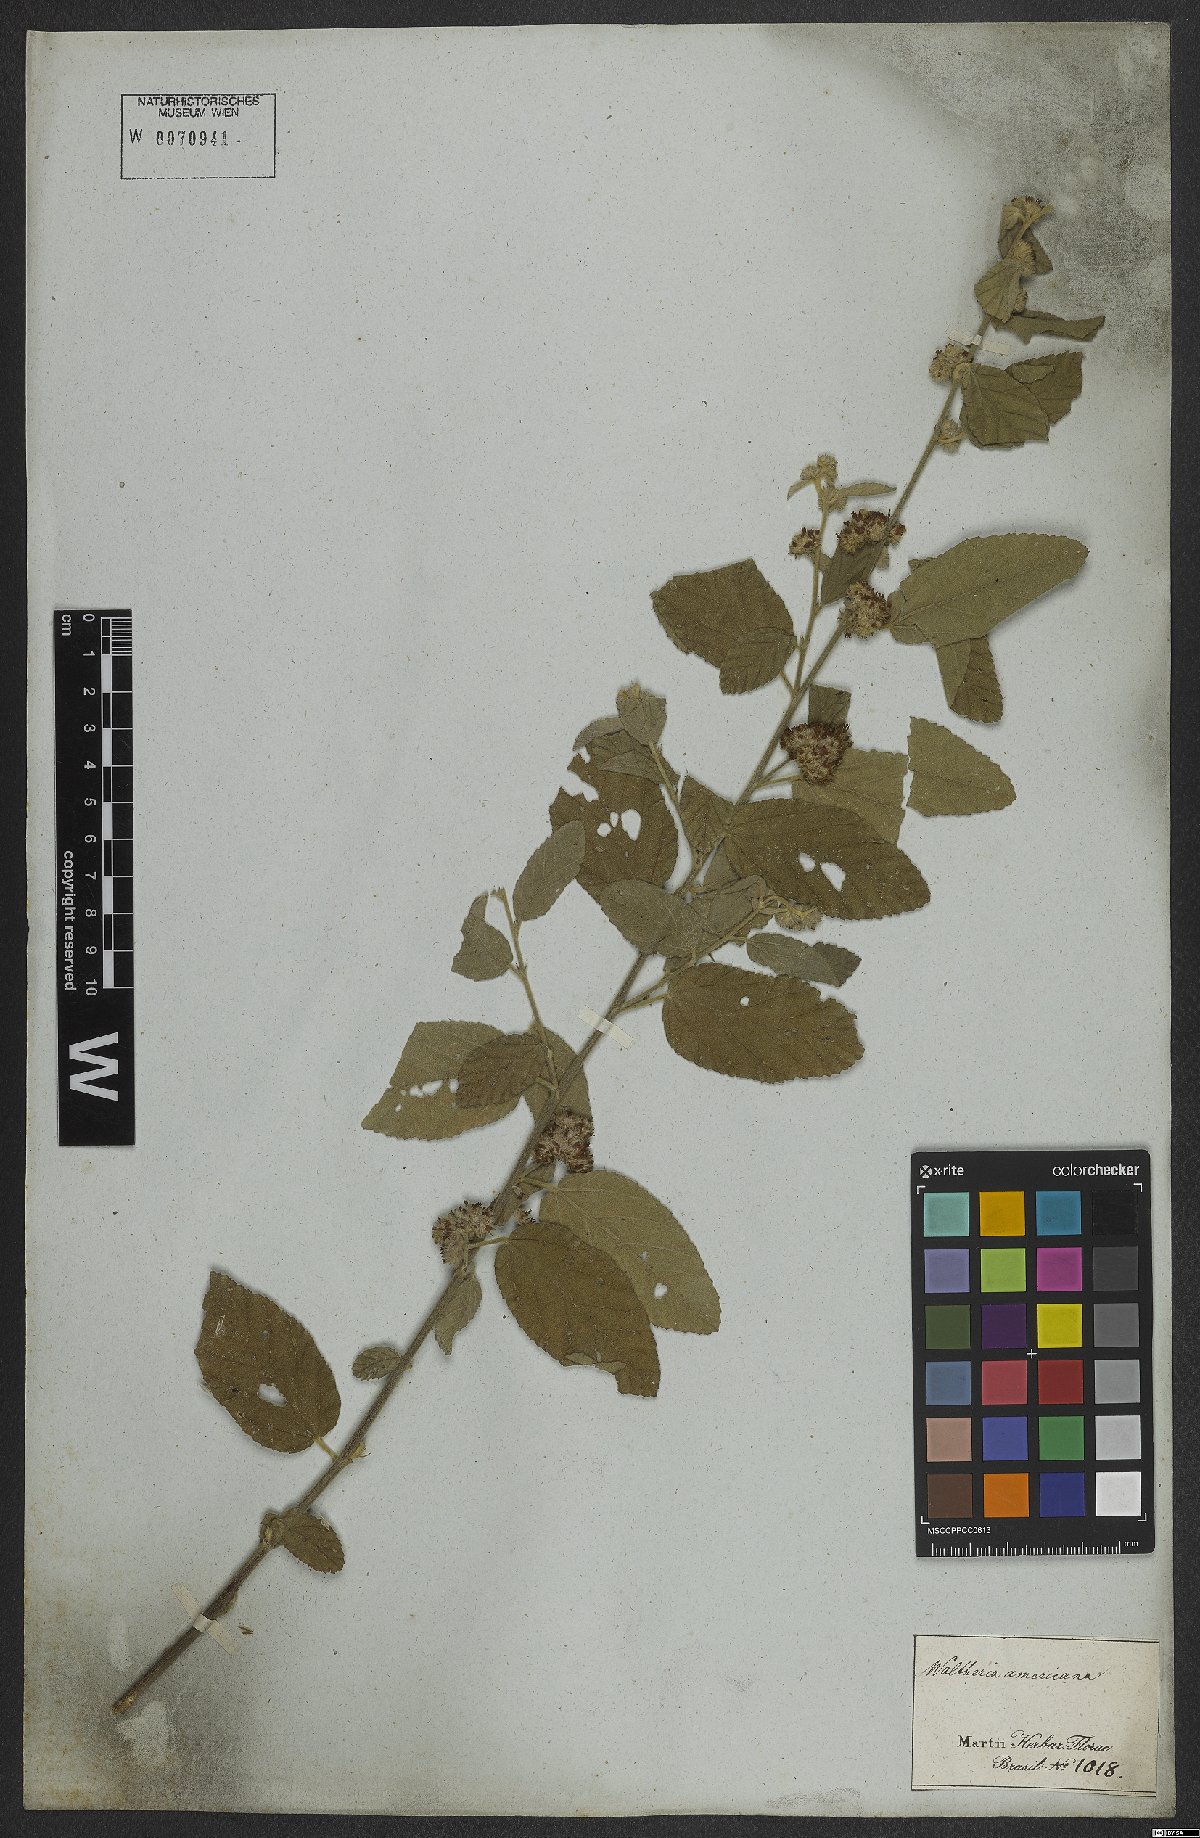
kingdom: Plantae
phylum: Tracheophyta
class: Magnoliopsida
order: Malvales
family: Malvaceae
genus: Waltheria
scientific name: Waltheria indica
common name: Leather-coat
